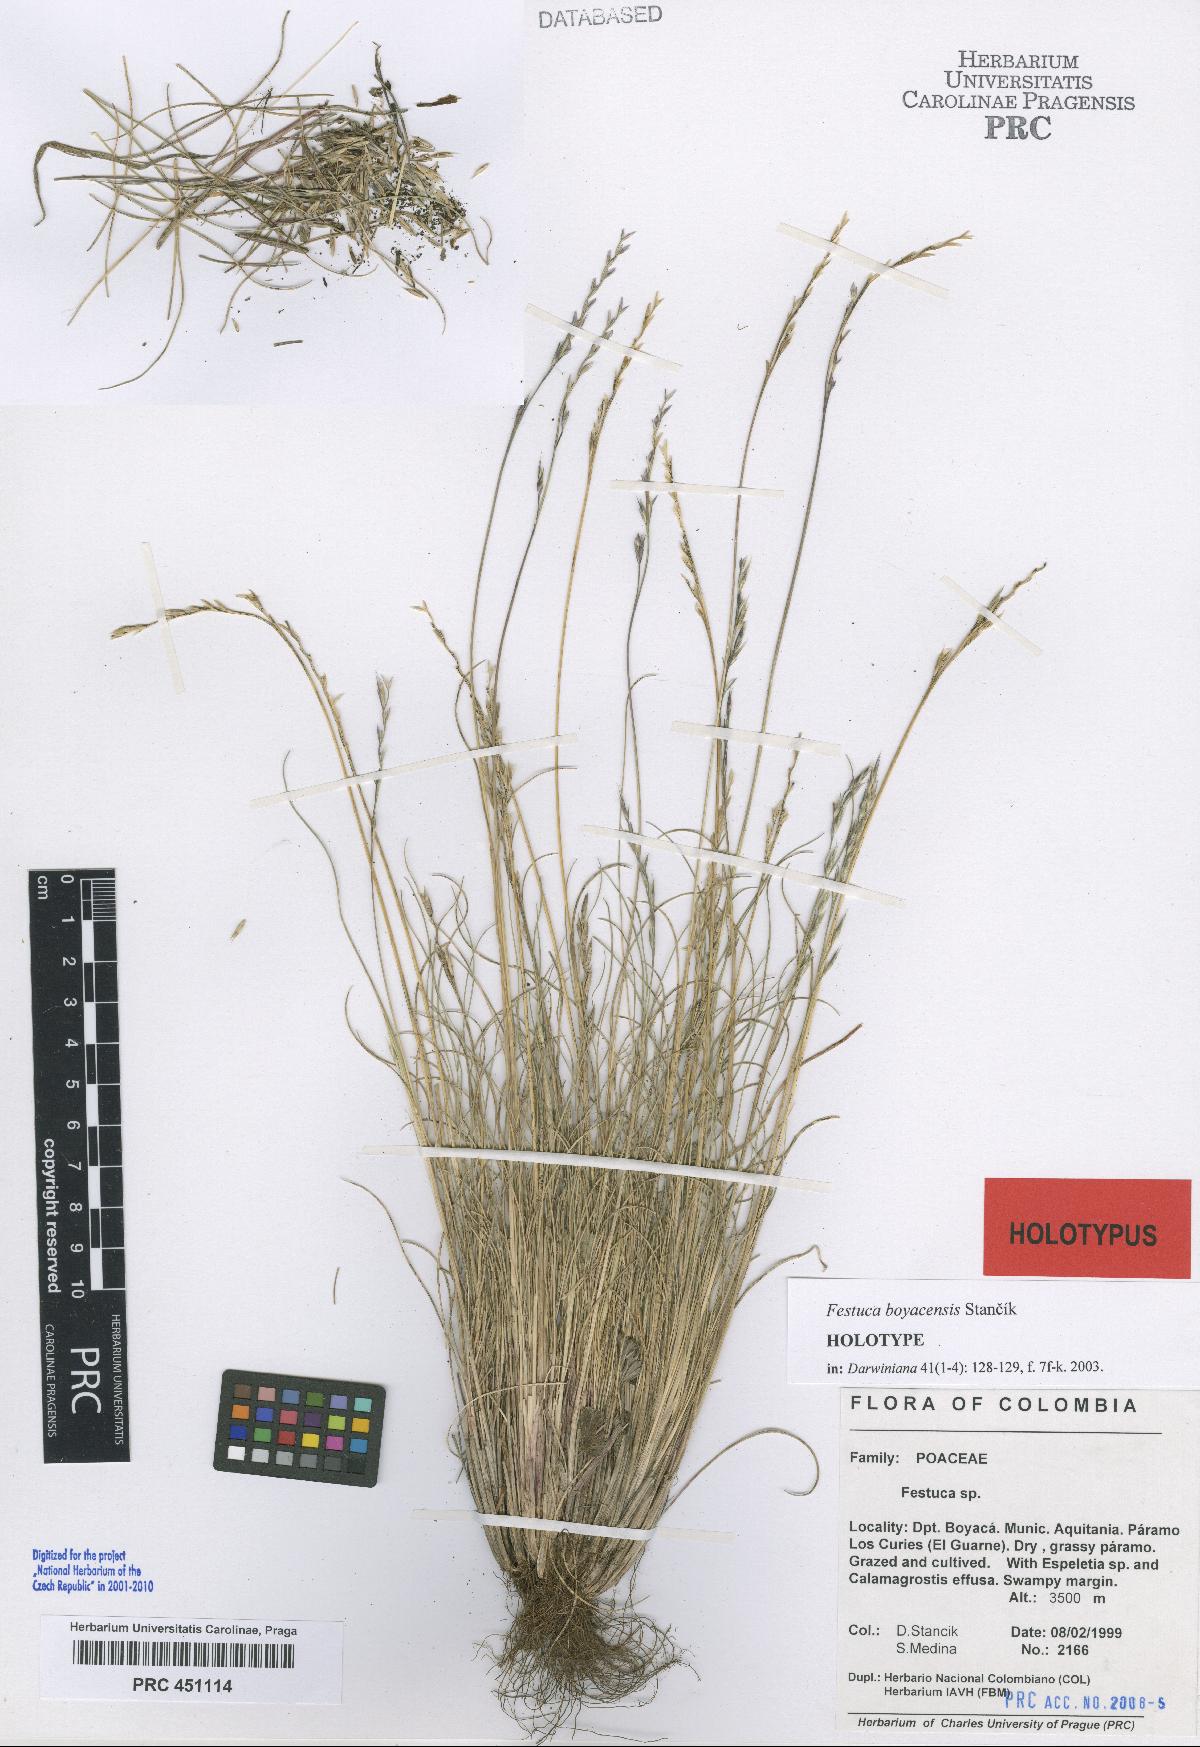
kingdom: Plantae
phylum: Tracheophyta
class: Liliopsida
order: Poales
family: Poaceae
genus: Festuca
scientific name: Festuca boyacensis
